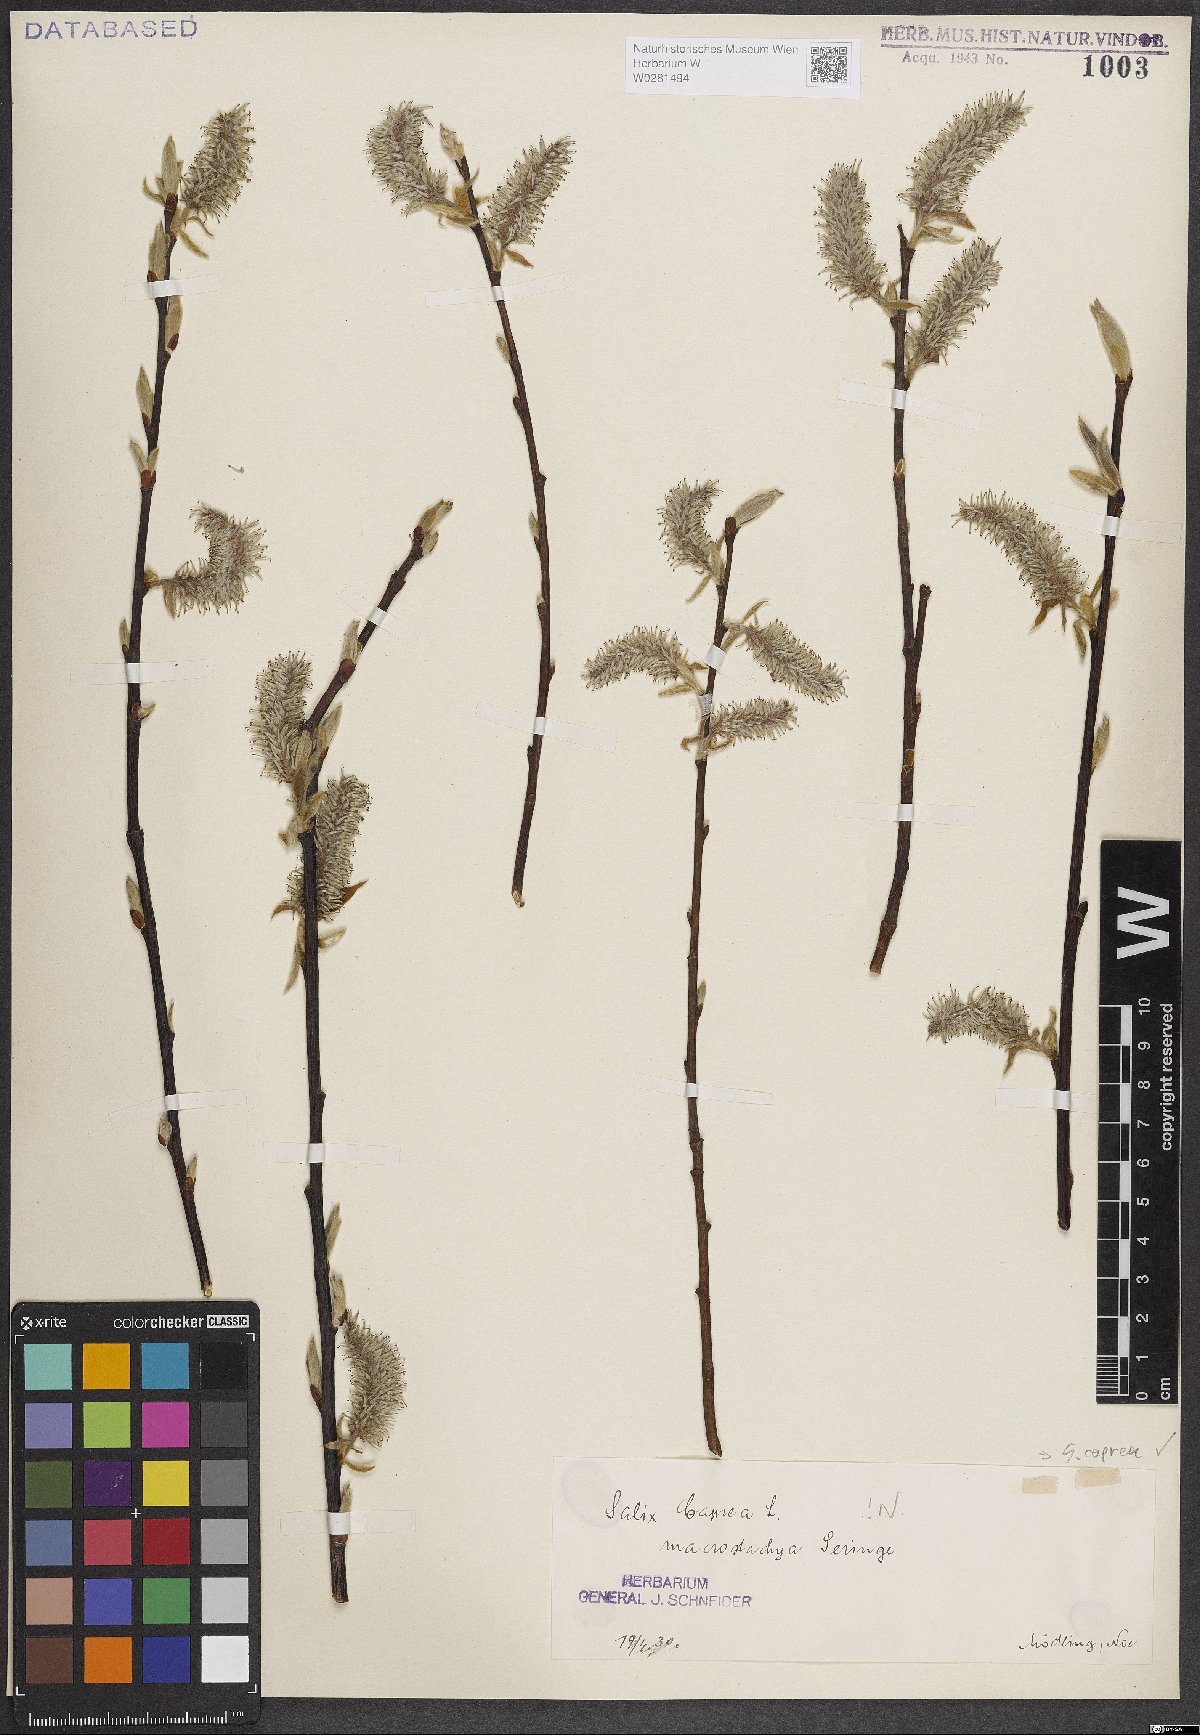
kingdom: Plantae
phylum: Tracheophyta
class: Magnoliopsida
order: Malpighiales
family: Salicaceae
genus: Salix
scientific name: Salix caprea
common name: Goat willow
